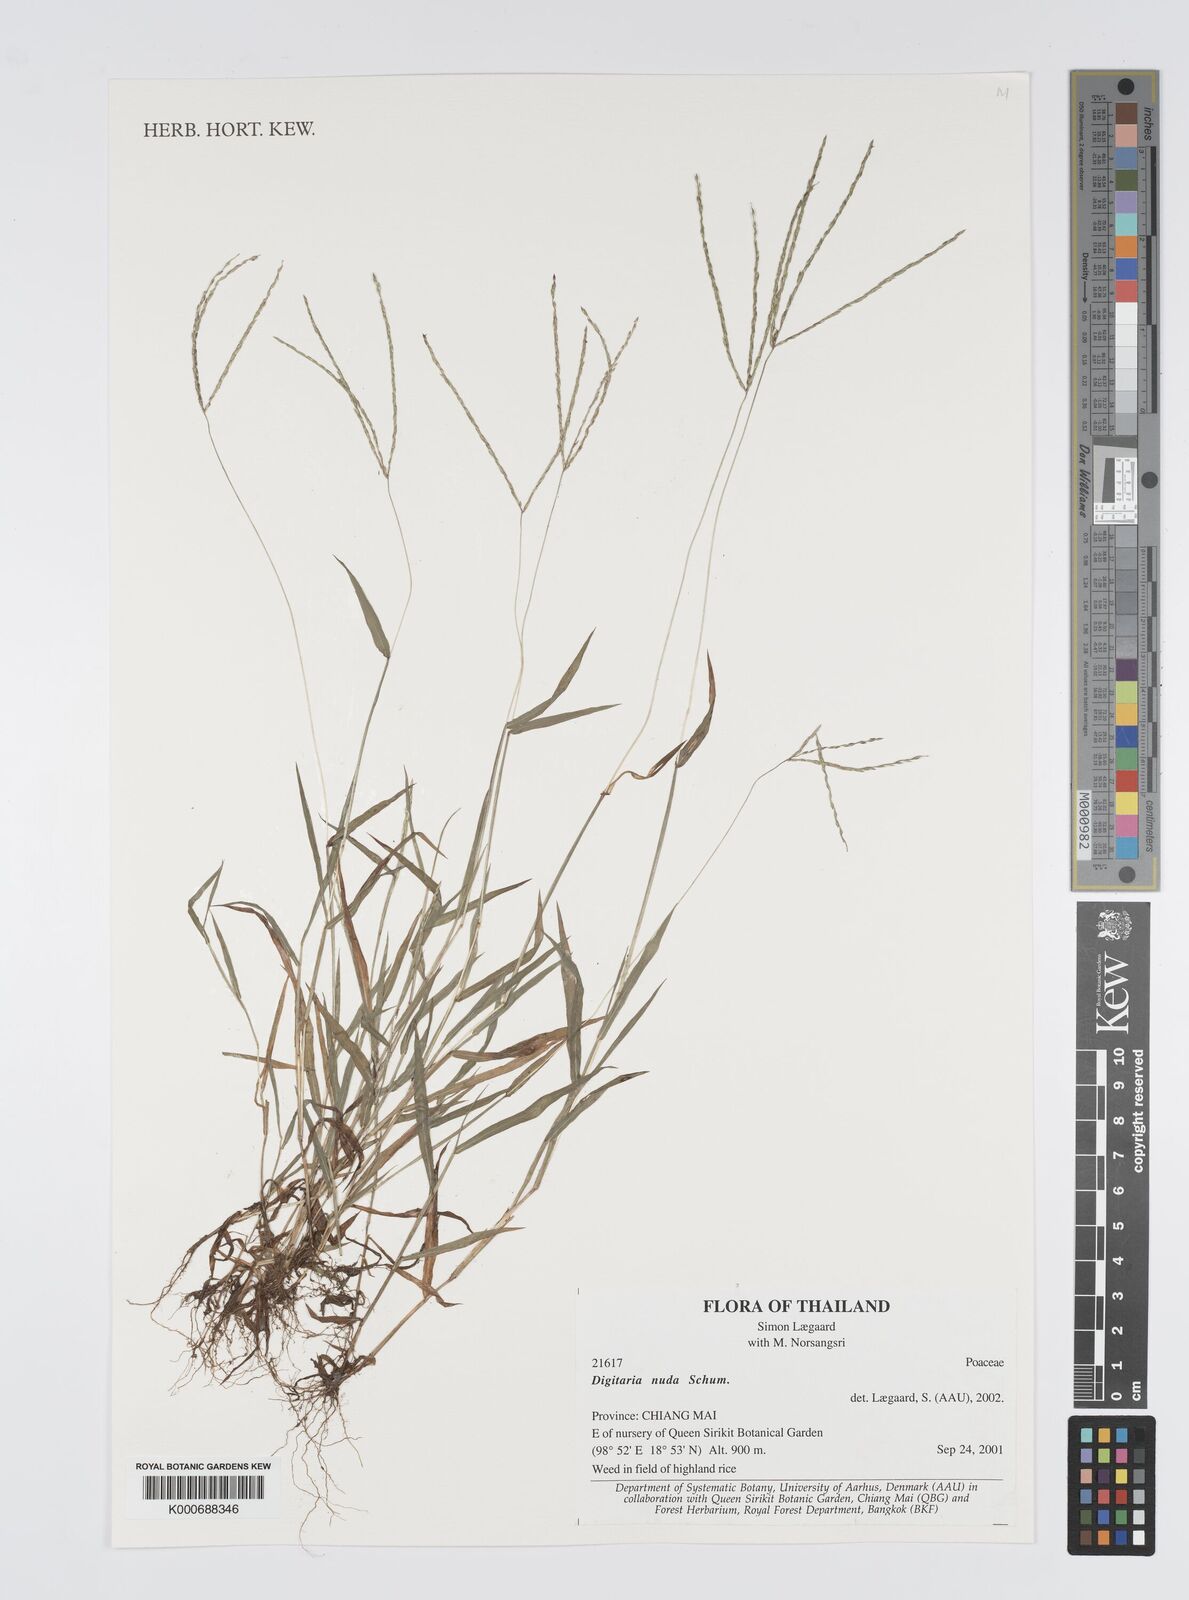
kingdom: Plantae
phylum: Tracheophyta
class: Liliopsida
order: Poales
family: Poaceae
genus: Digitaria
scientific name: Digitaria nuda
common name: Naked crabgrass
